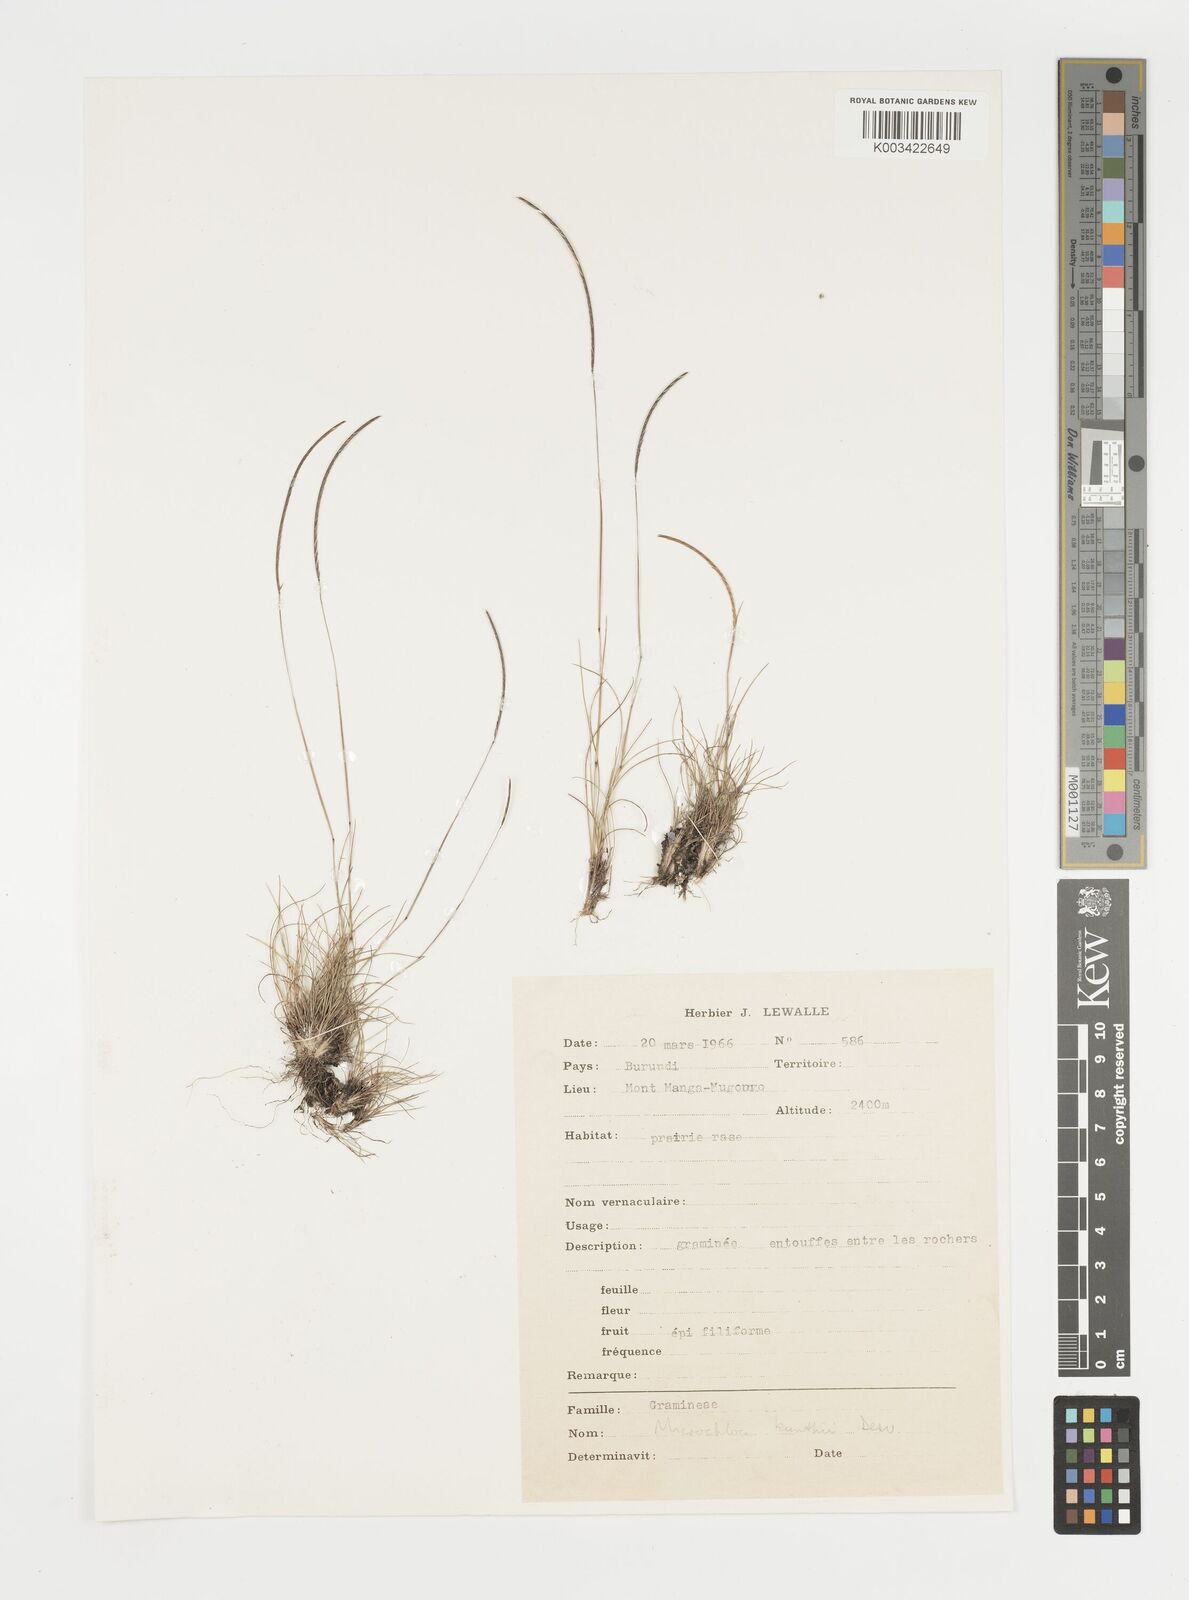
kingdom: Plantae
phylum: Tracheophyta
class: Liliopsida
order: Poales
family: Poaceae
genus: Microchloa
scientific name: Microchloa kunthii
